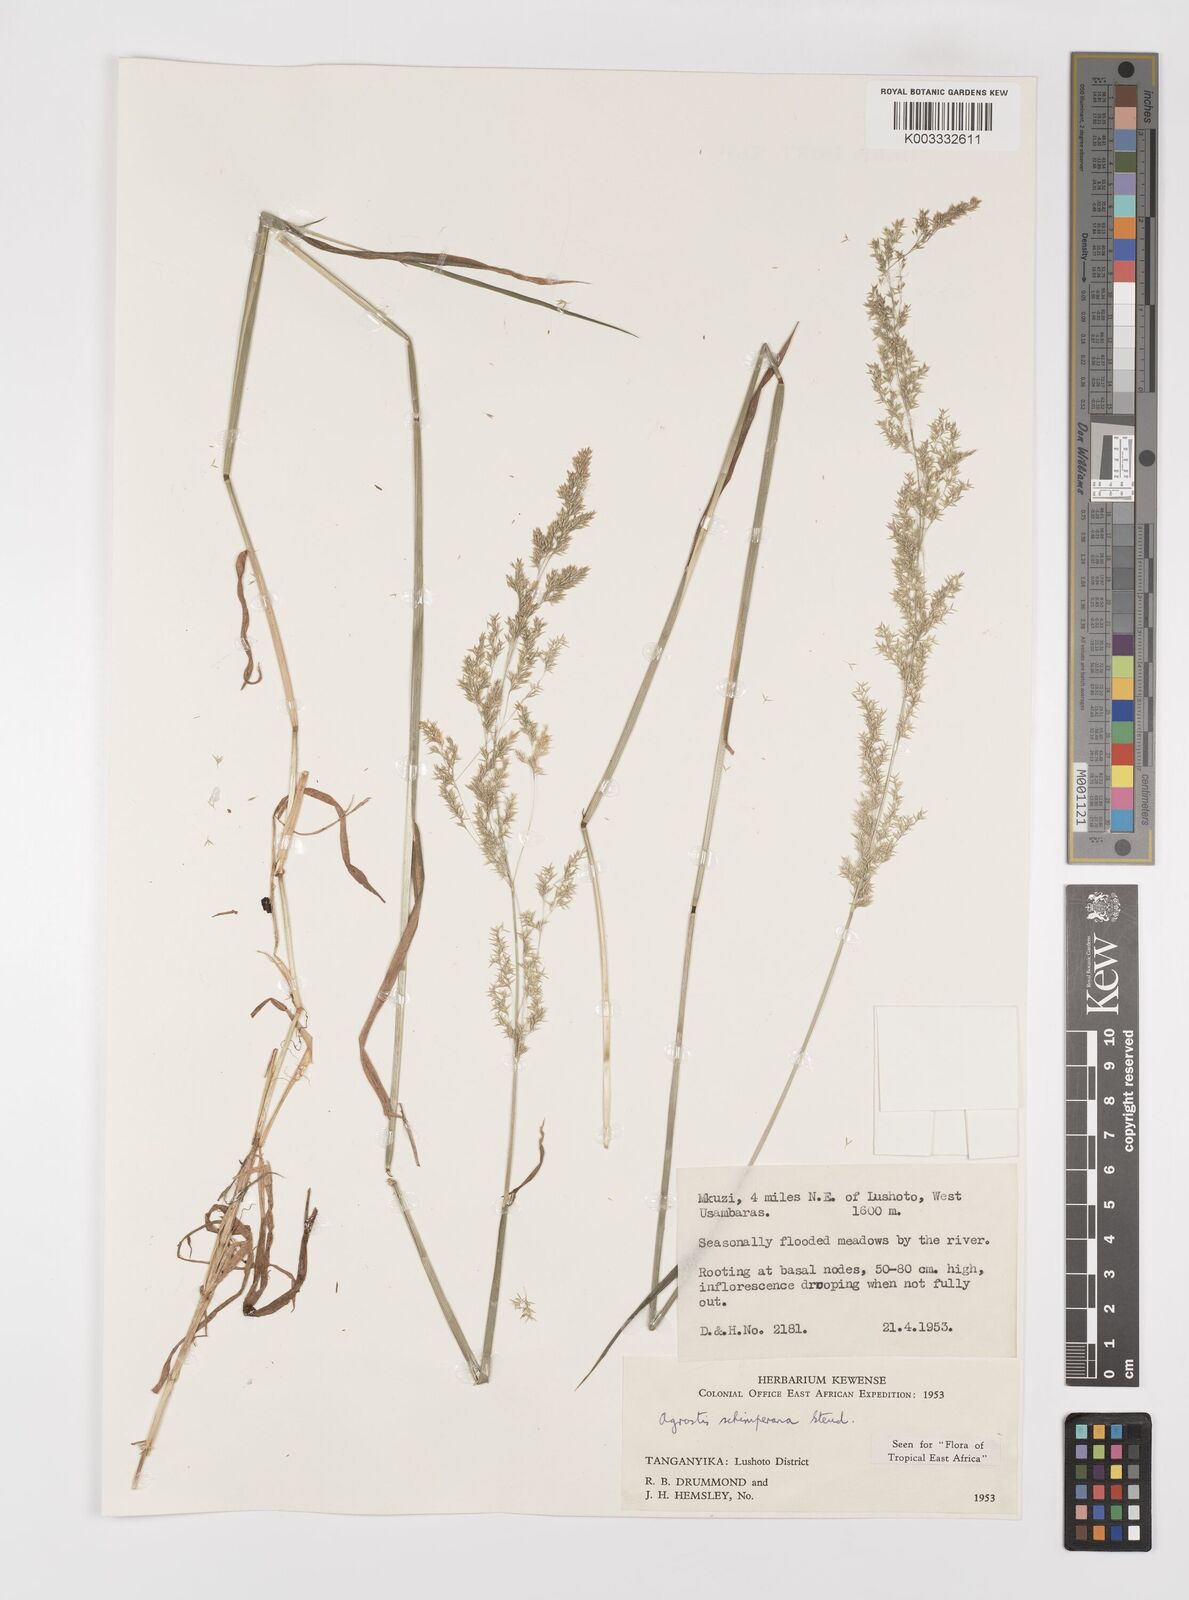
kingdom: Plantae
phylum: Tracheophyta
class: Liliopsida
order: Poales
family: Poaceae
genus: Polypogon
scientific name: Polypogon schimperianus
